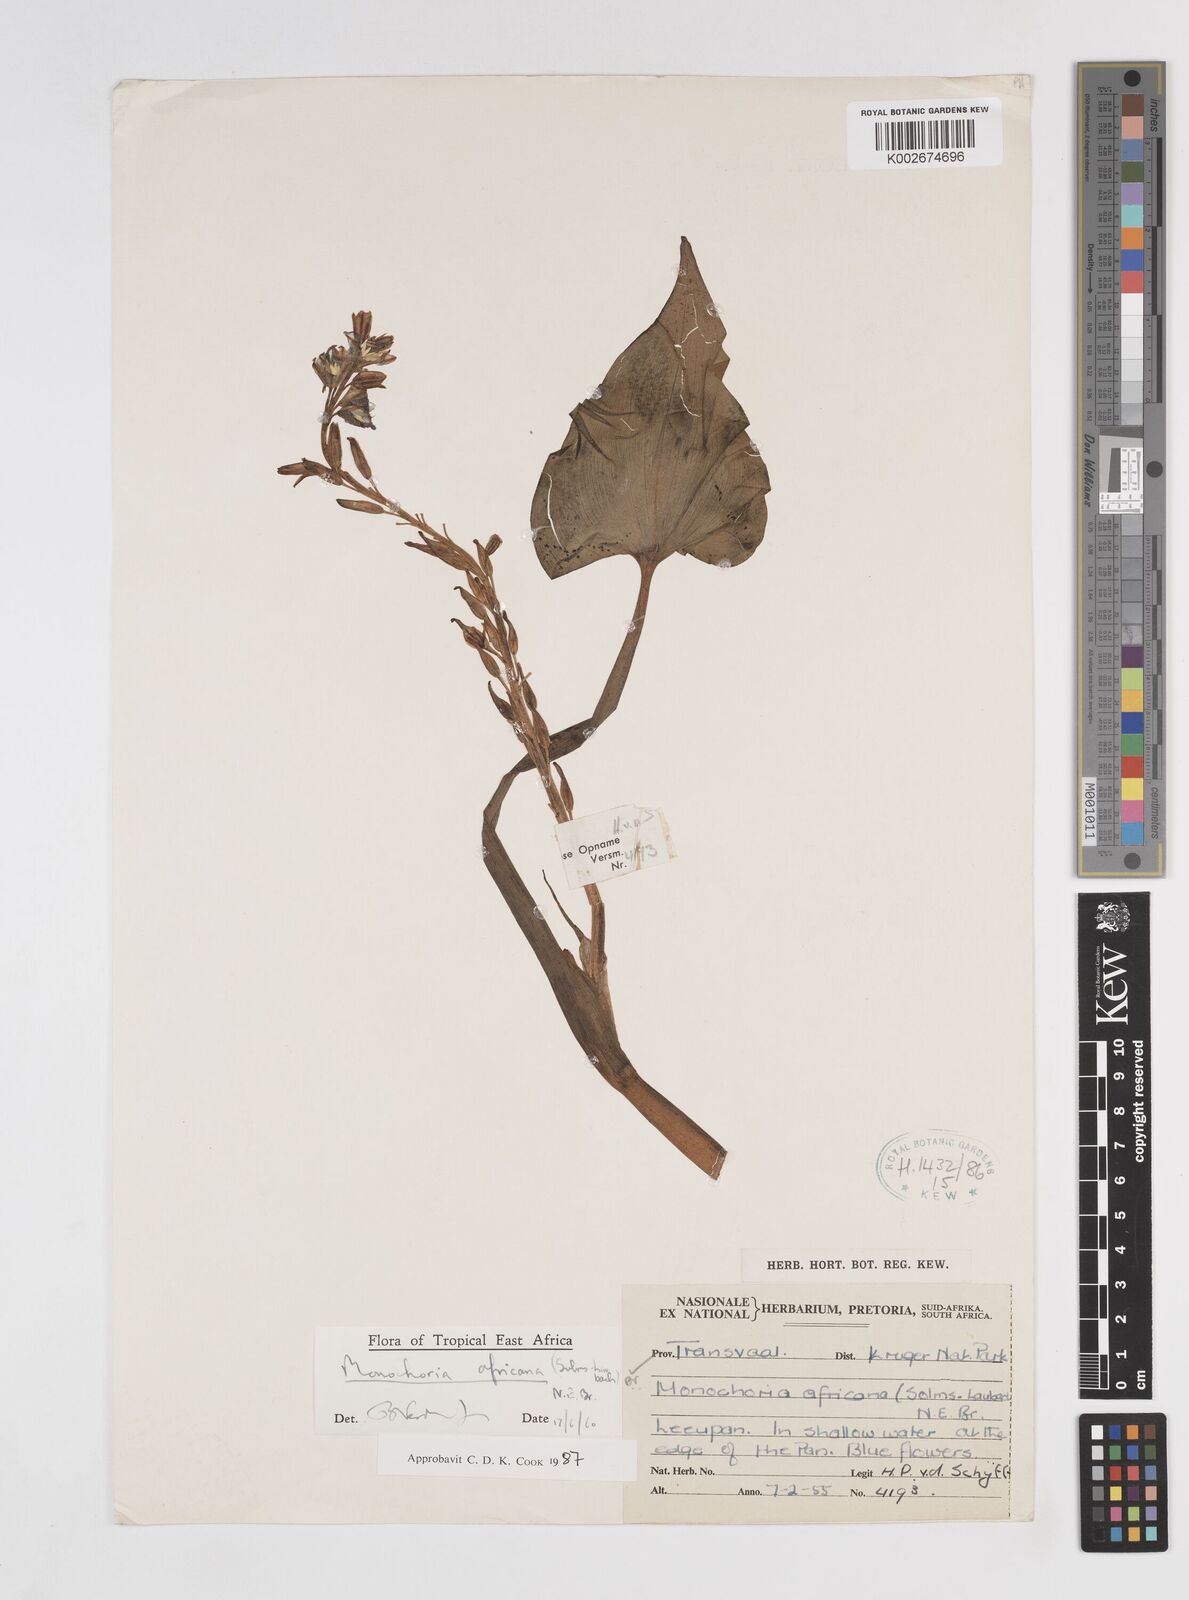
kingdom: Plantae
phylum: Tracheophyta
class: Liliopsida
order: Commelinales
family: Pontederiaceae
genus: Pontederia
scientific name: Pontederia africana
